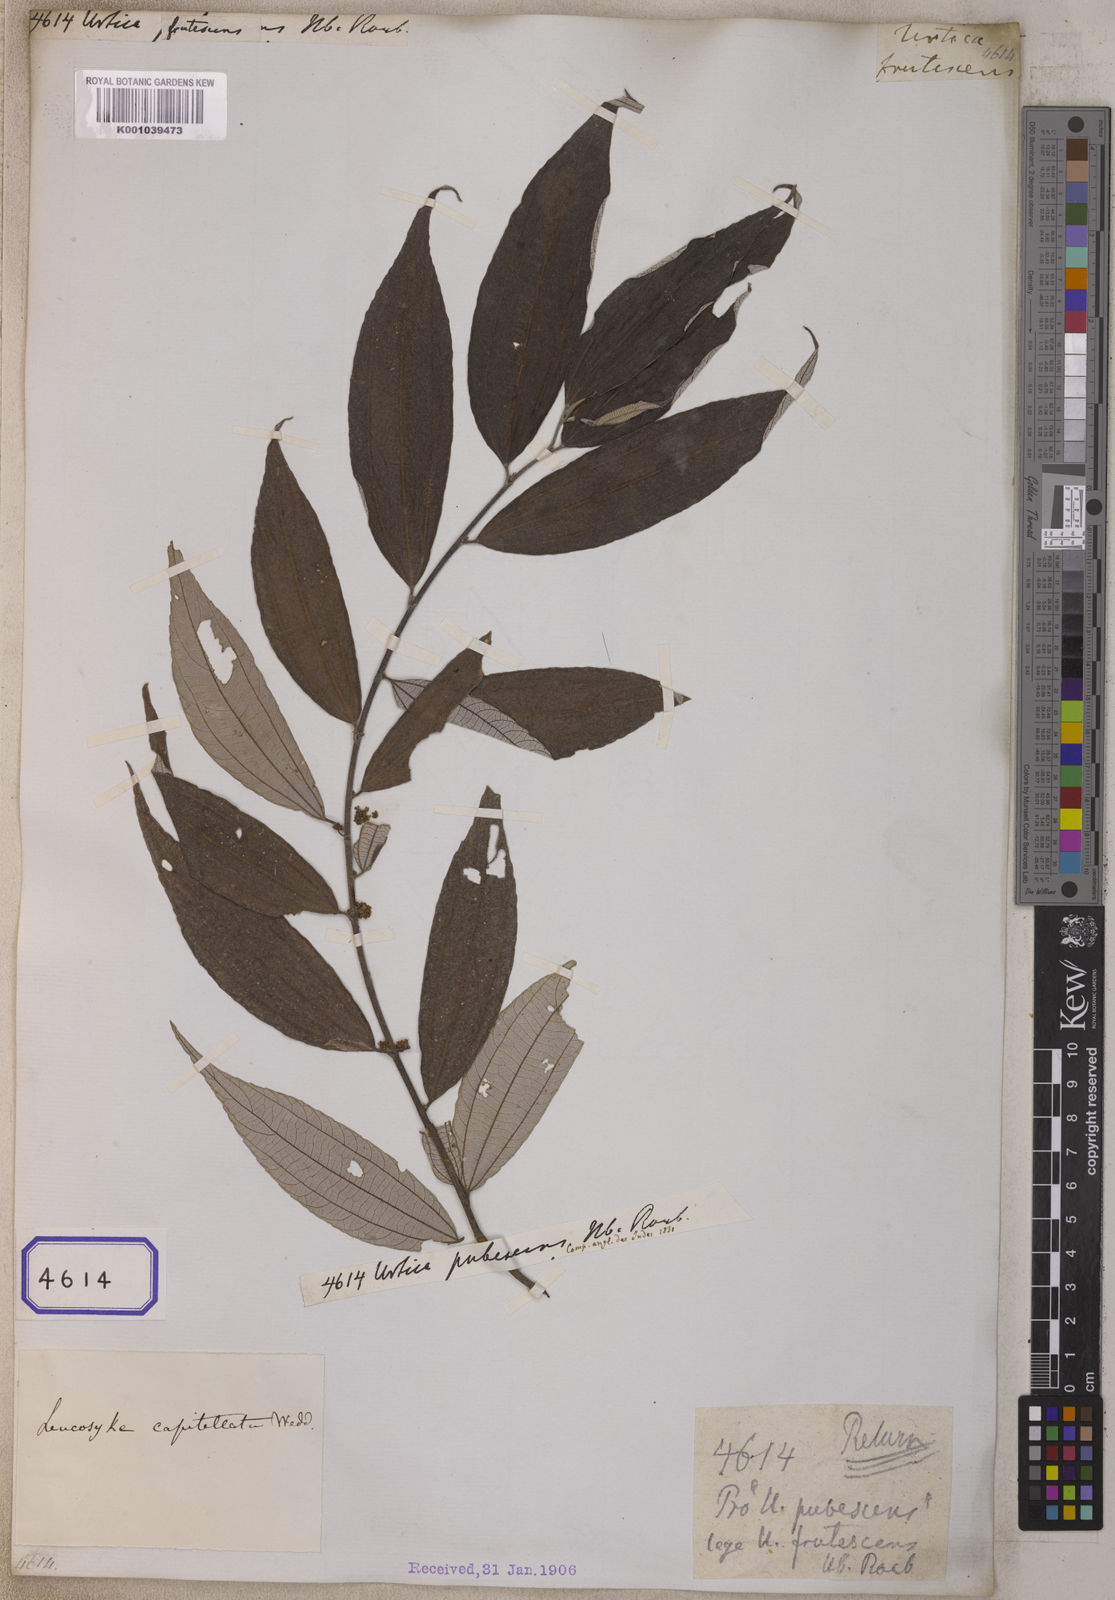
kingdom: Plantae
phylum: Tracheophyta
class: Magnoliopsida
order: Rosales
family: Urticaceae
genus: Oreocnide
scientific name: Oreocnide frutescens
